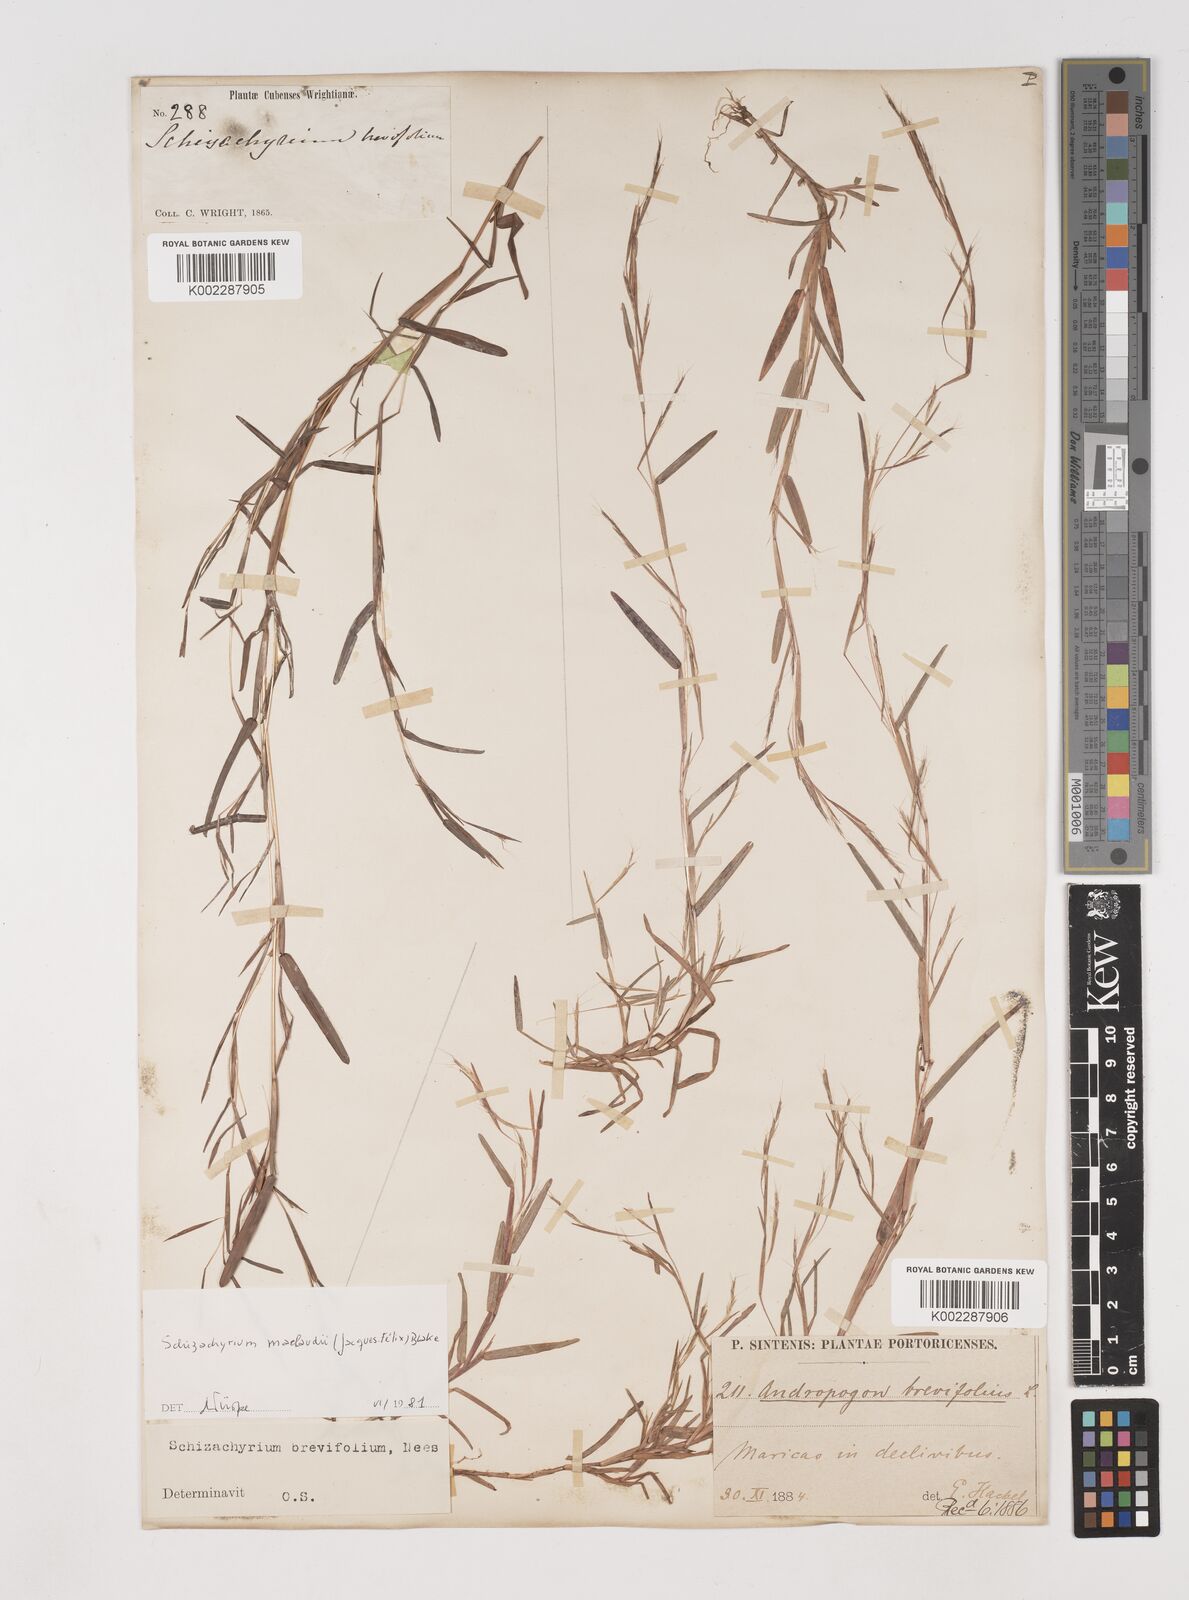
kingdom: Plantae
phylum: Tracheophyta
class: Liliopsida
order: Poales
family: Poaceae
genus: Schizachyrium
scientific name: Schizachyrium brevifolium
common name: Serillo dulce
